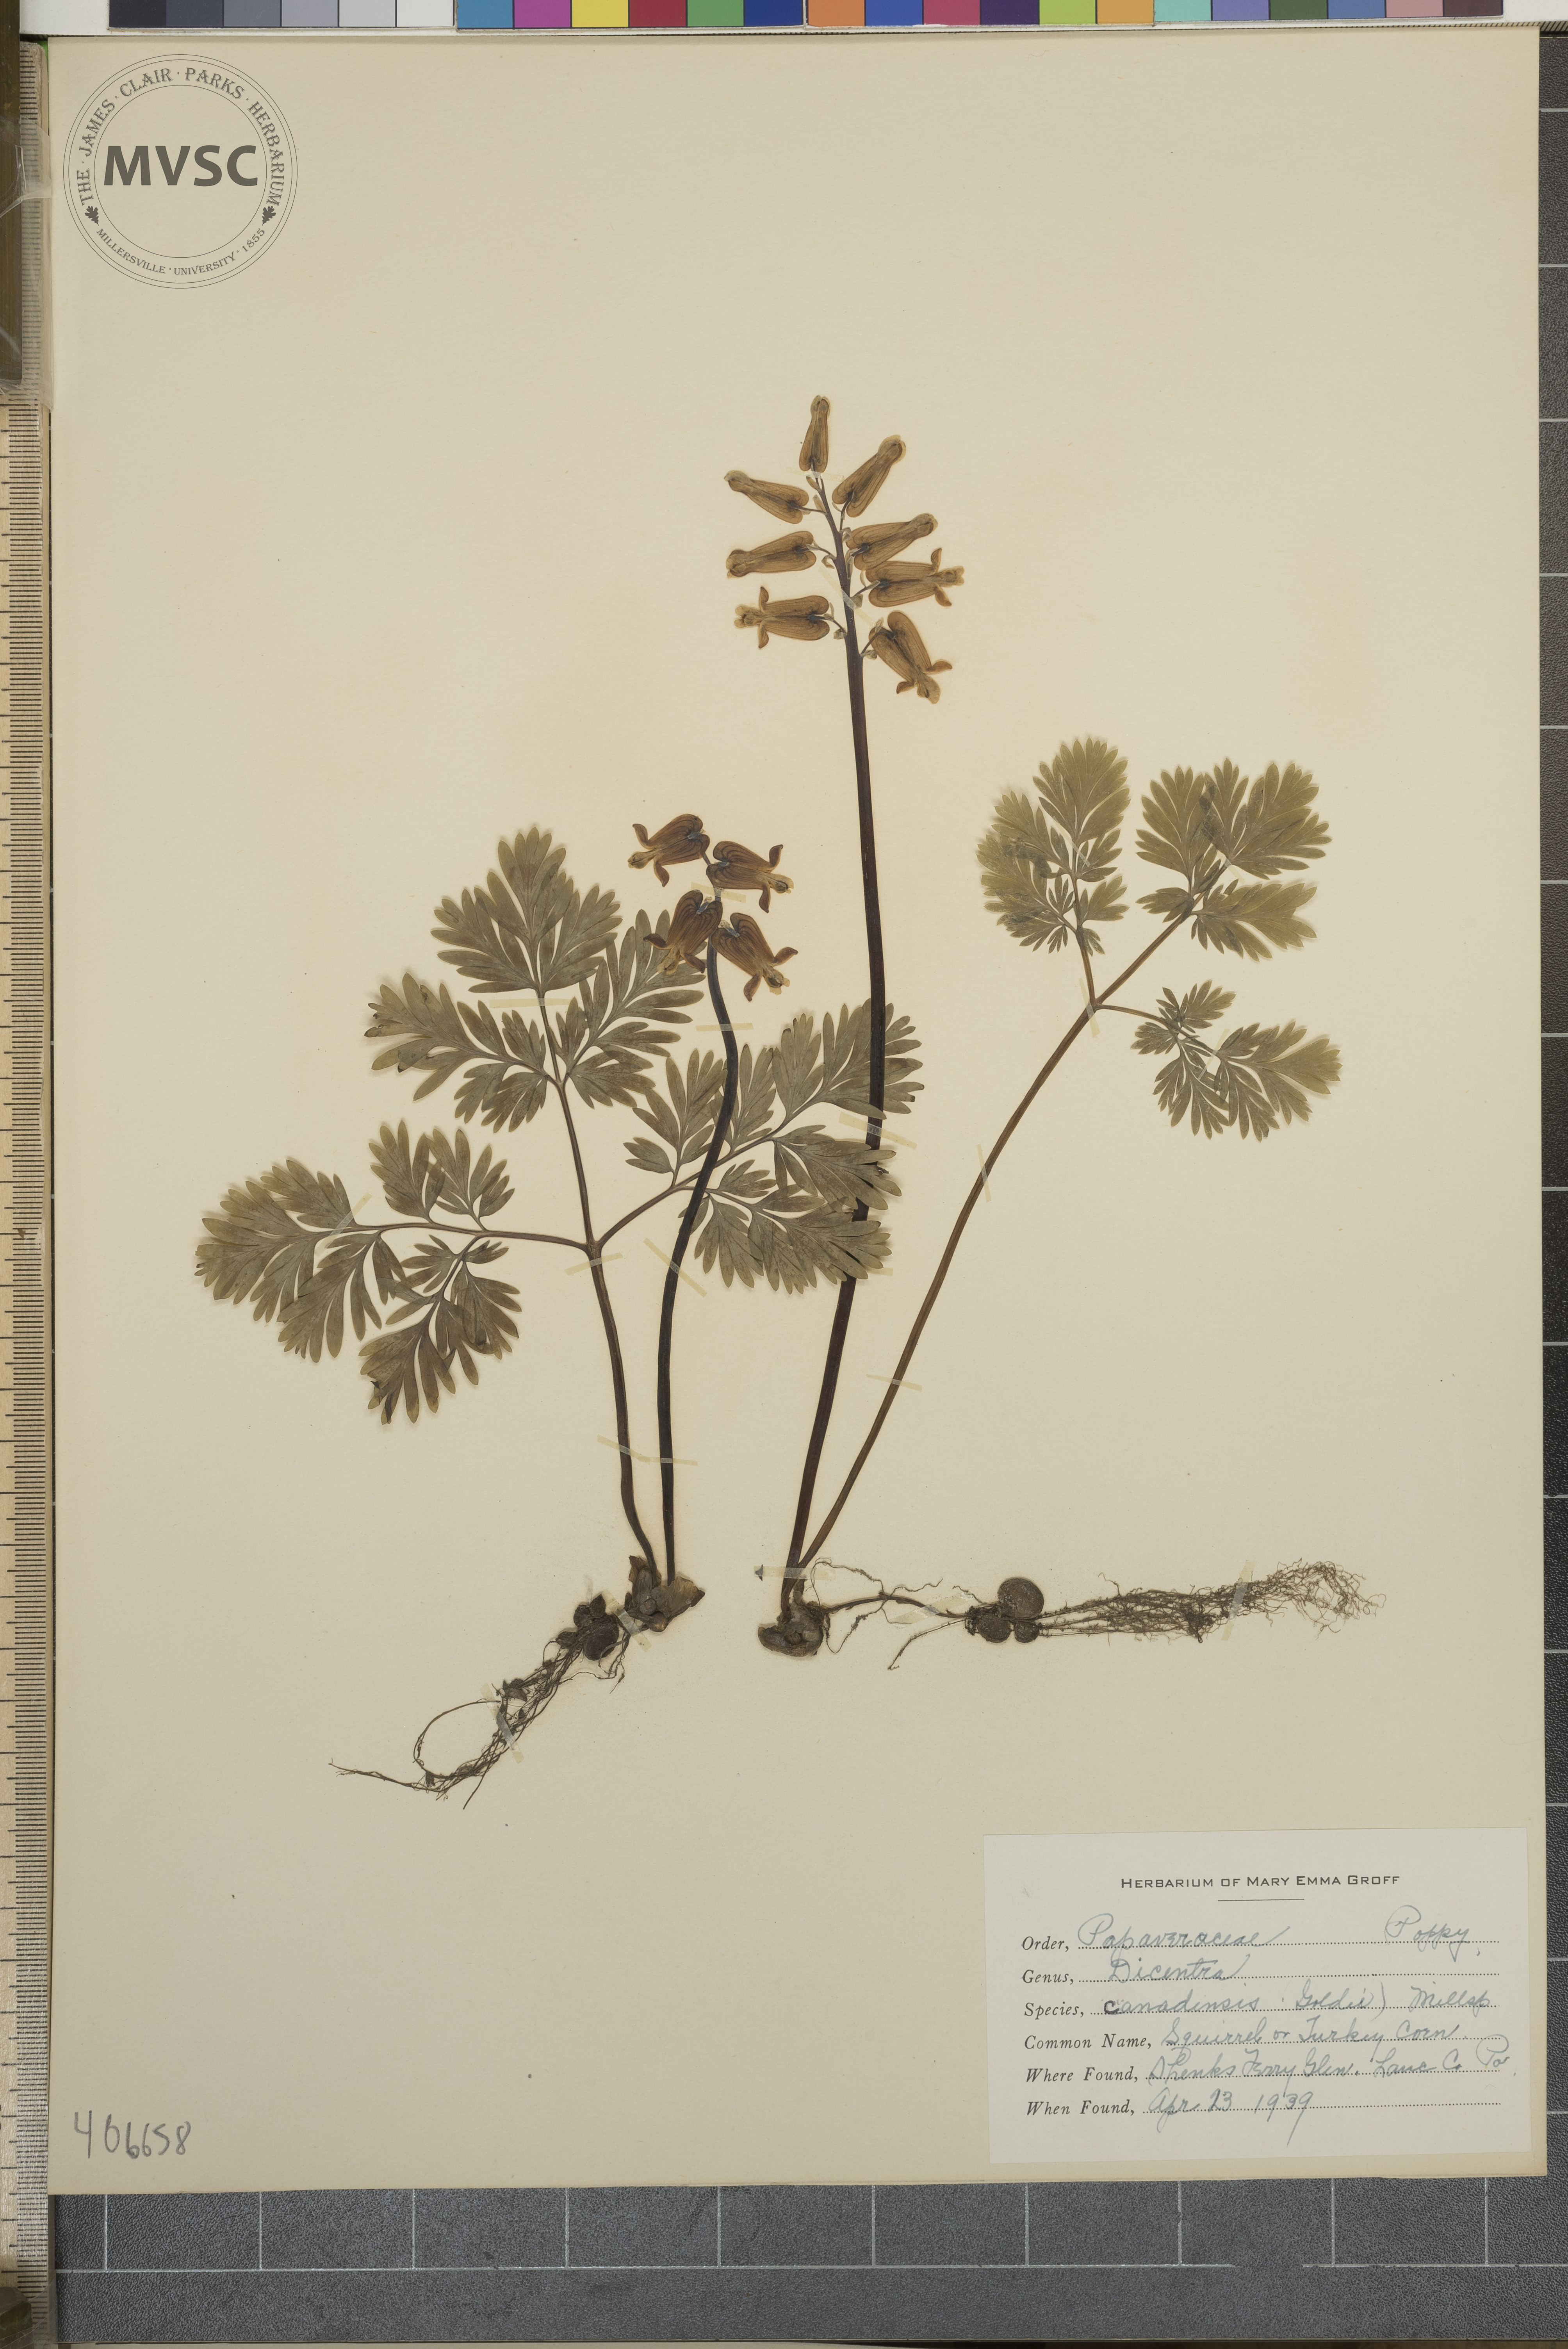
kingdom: Plantae
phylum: Tracheophyta
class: Magnoliopsida
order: Ranunculales
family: Papaveraceae
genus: Dicentra
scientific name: Dicentra canadensis
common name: Squirrel corn
